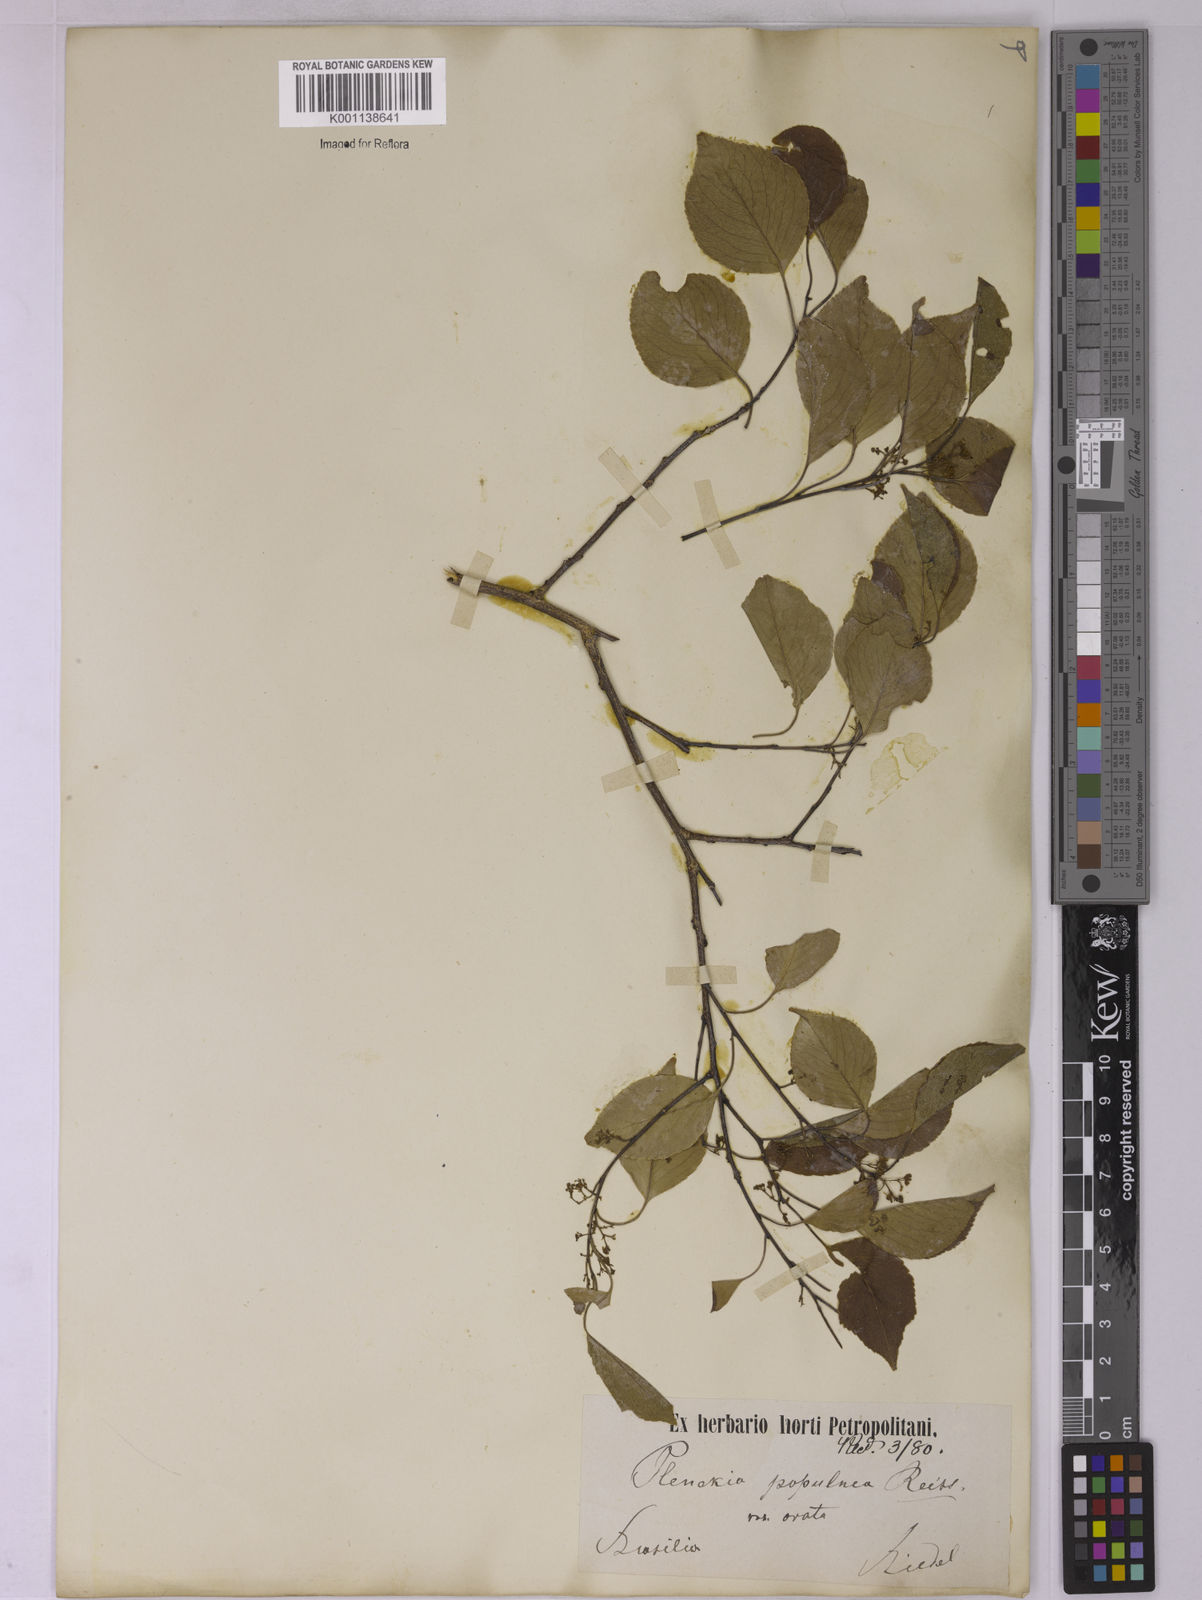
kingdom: Plantae
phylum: Tracheophyta
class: Magnoliopsida
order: Celastrales
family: Celastraceae
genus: Plenckia
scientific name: Plenckia populnea
